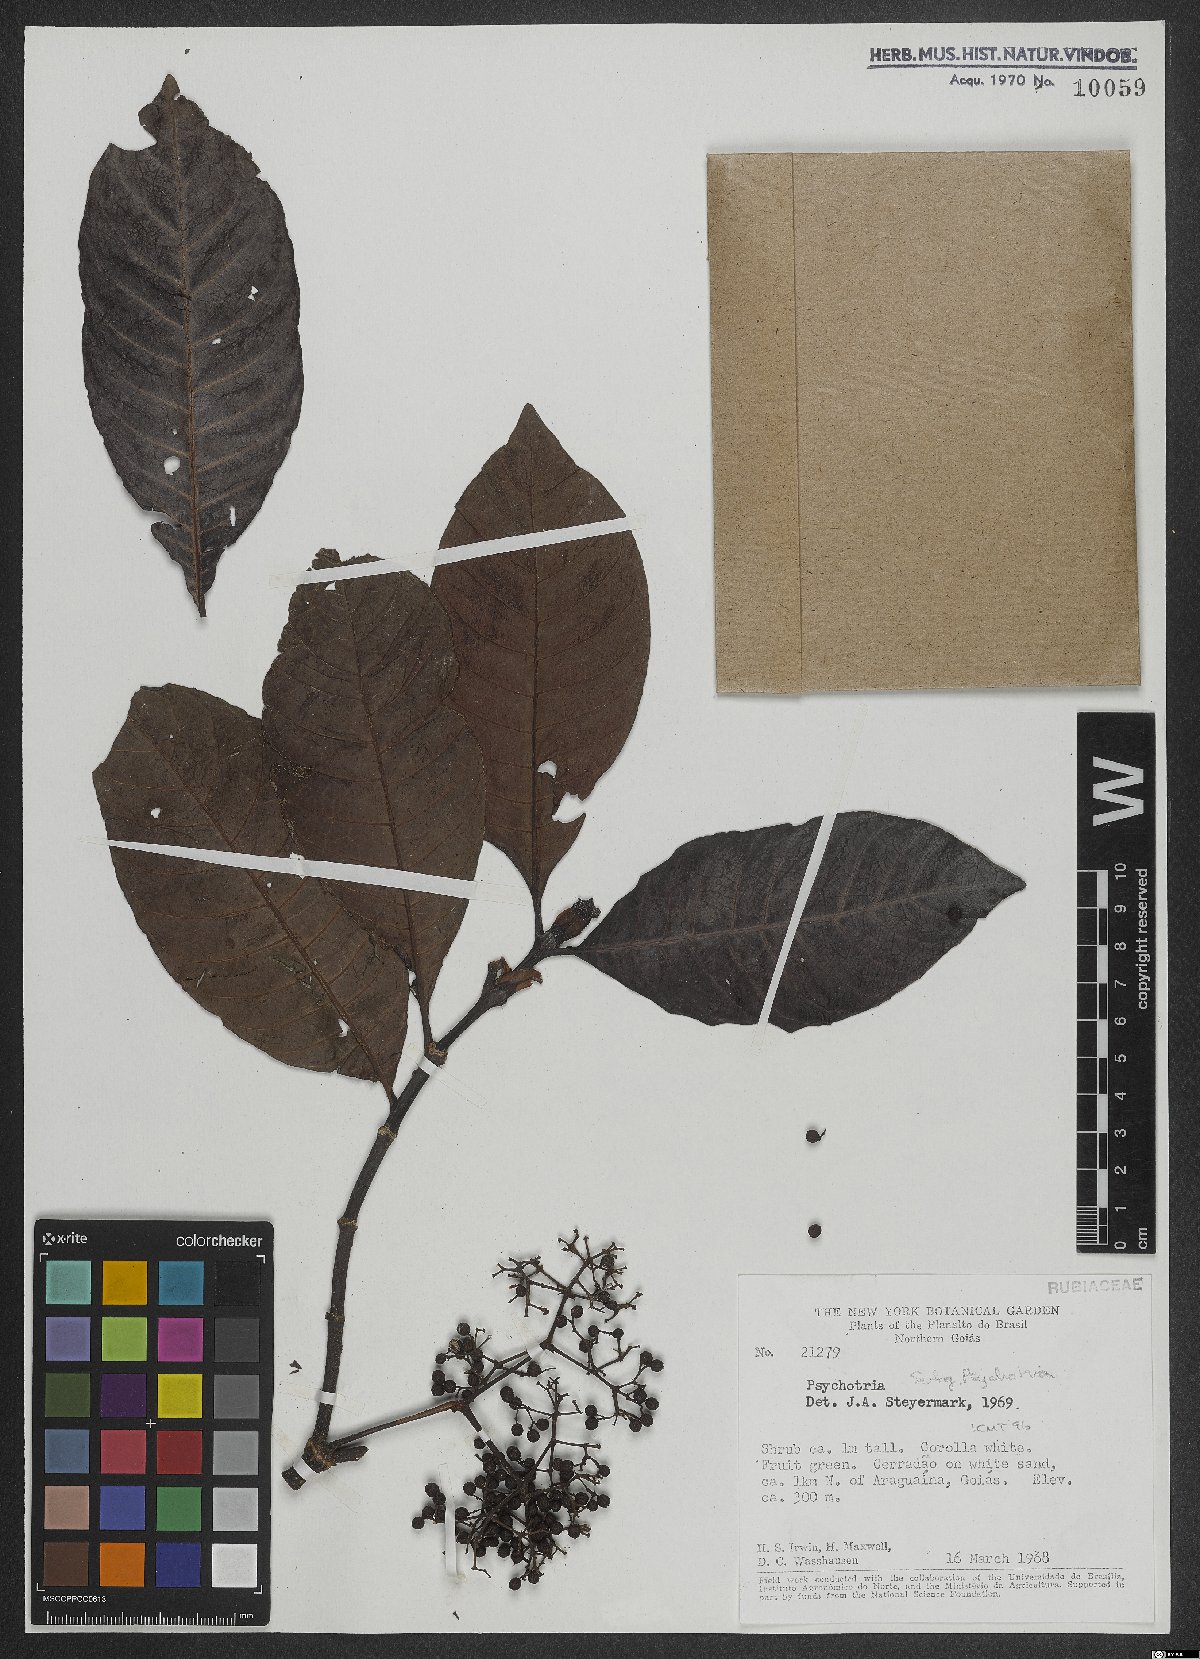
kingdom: Plantae
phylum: Tracheophyta
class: Magnoliopsida
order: Gentianales
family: Rubiaceae
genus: Psychotria
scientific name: Psychotria
